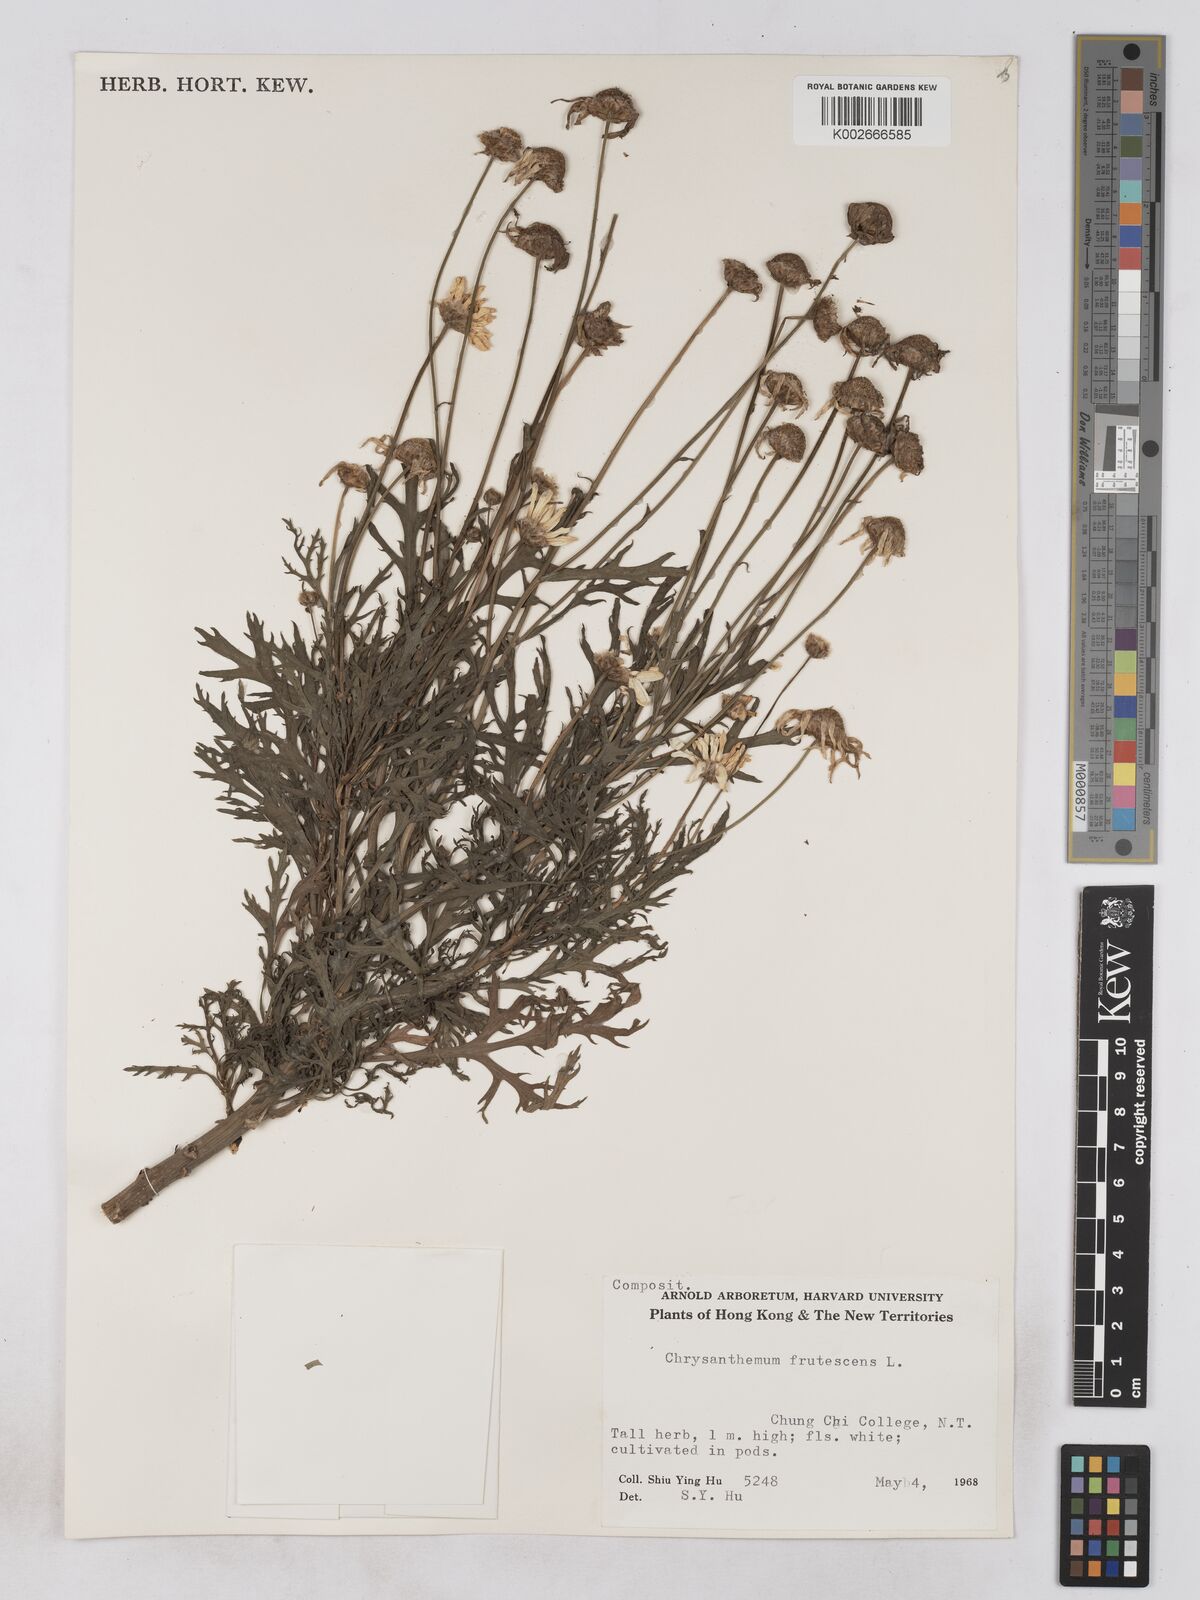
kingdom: Plantae
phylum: Tracheophyta
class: Magnoliopsida
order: Asterales
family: Asteraceae
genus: Argyranthemum
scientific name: Argyranthemum frutescens
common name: Paris daisy
